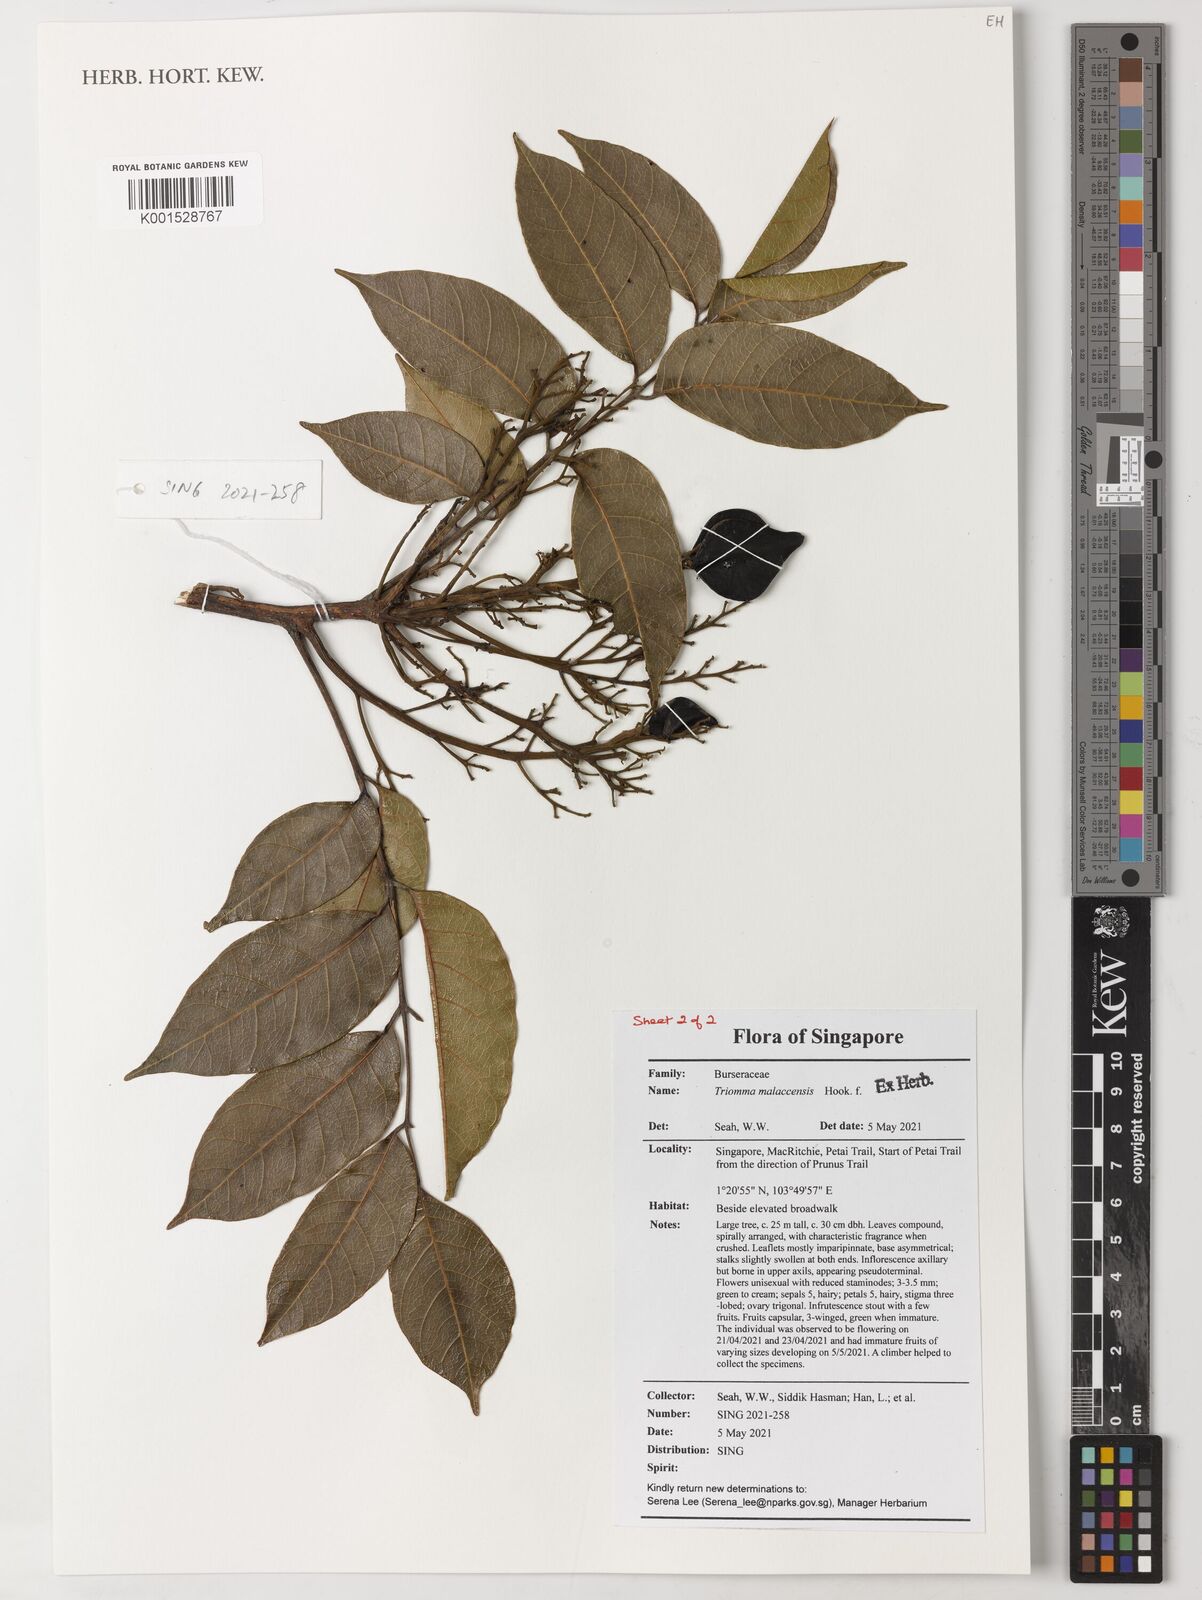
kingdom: Plantae
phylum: Tracheophyta
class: Magnoliopsida
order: Sapindales
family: Burseraceae
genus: Triomma
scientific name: Triomma malaccensis
